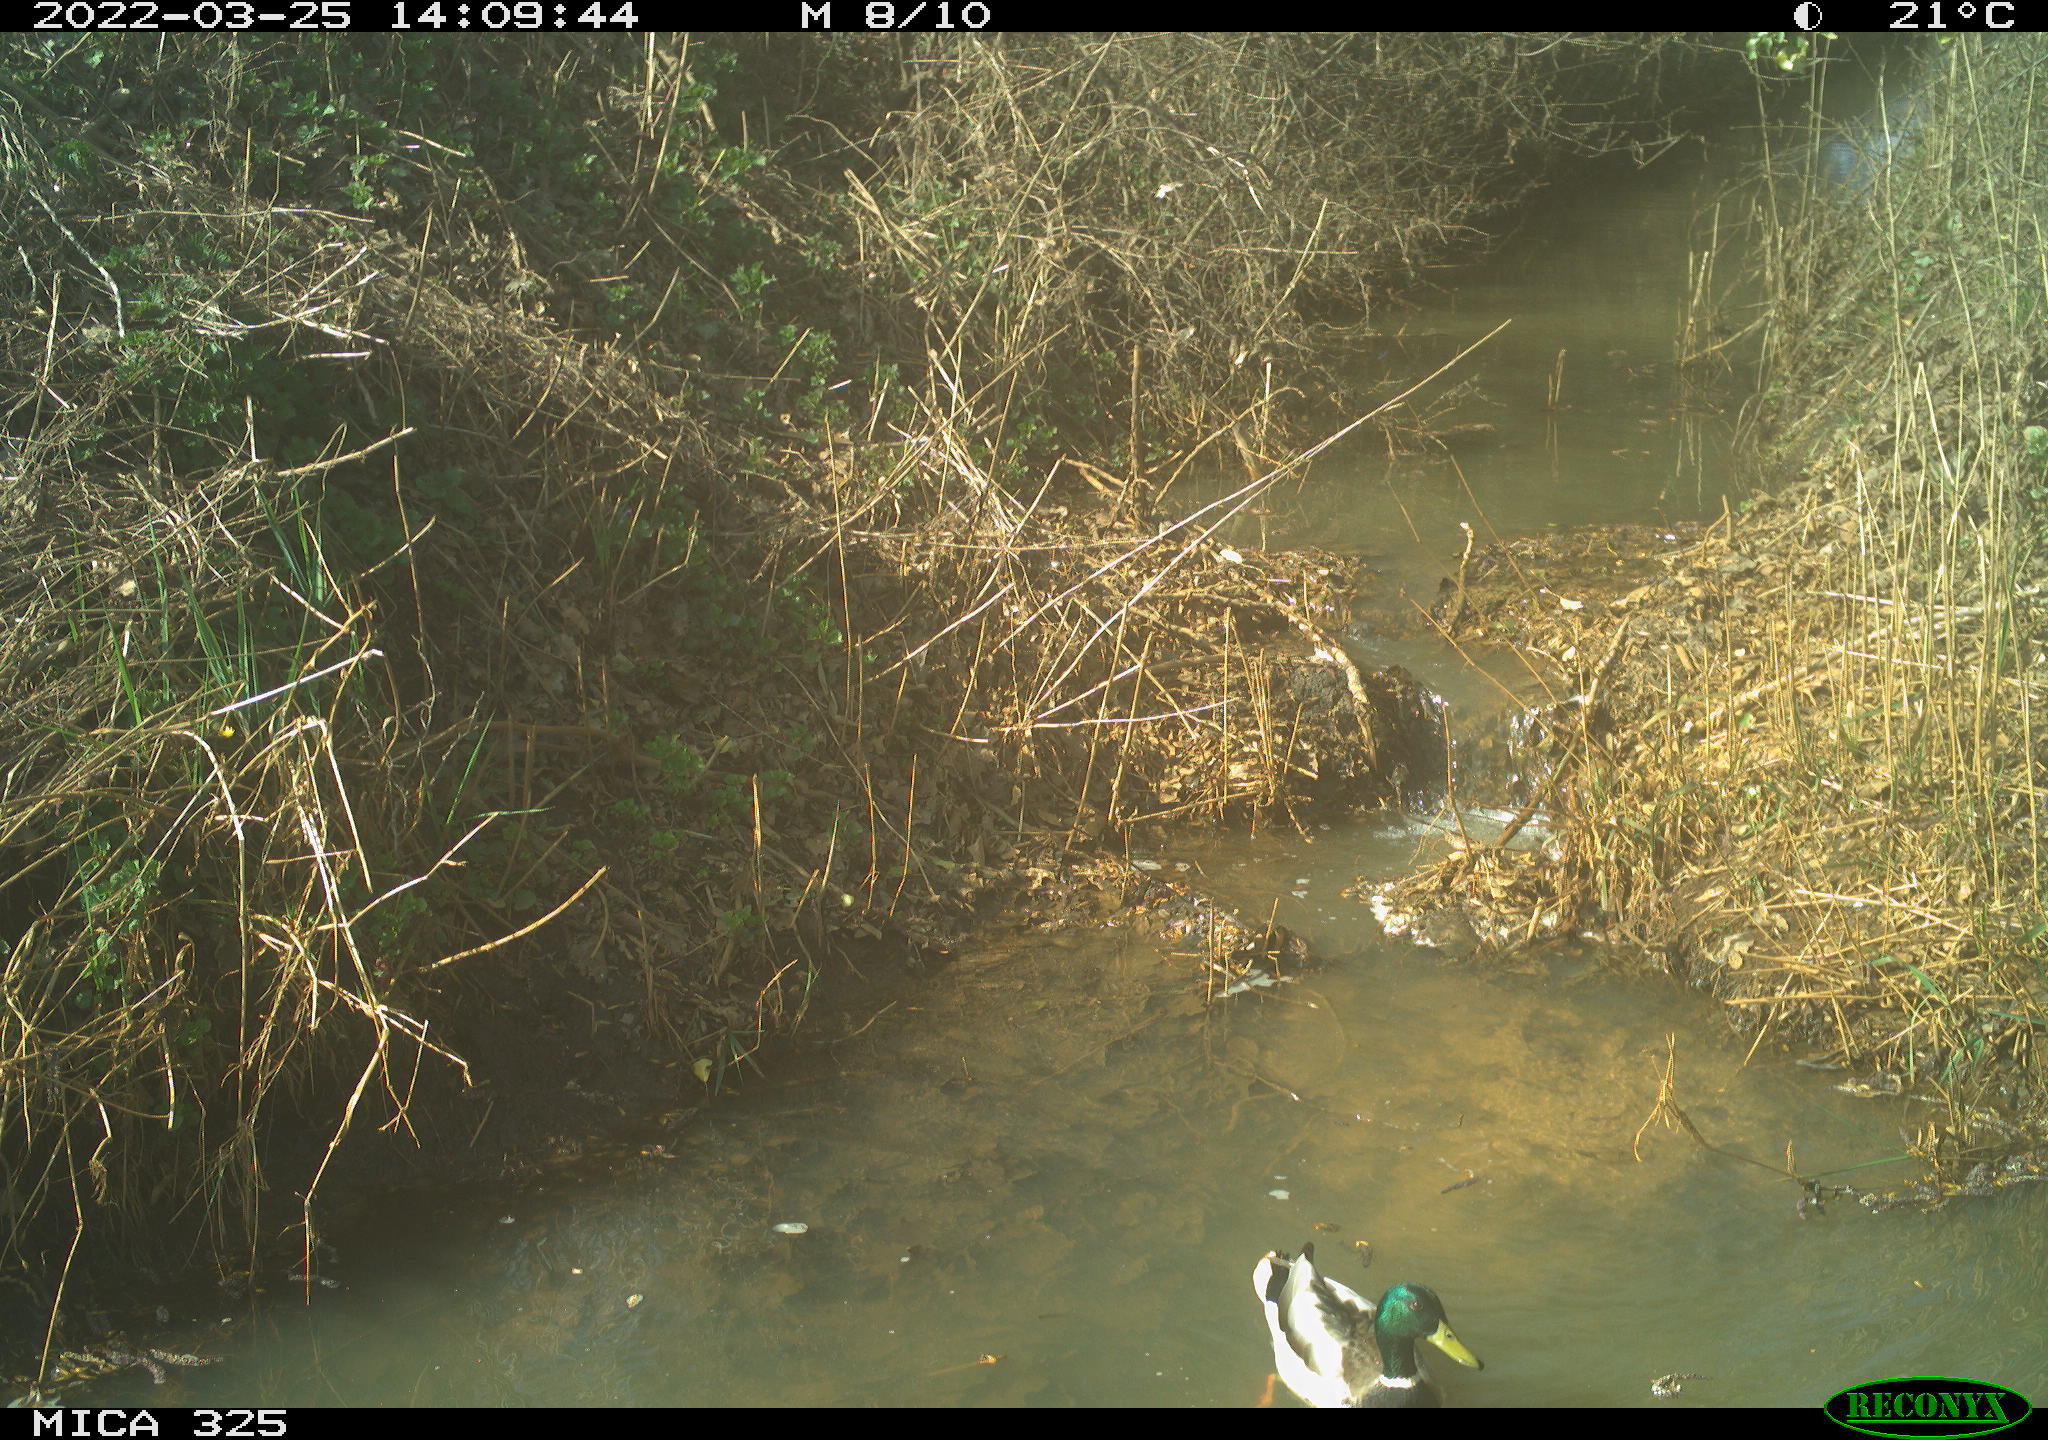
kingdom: Animalia
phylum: Chordata
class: Aves
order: Anseriformes
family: Anatidae
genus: Anas
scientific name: Anas platyrhynchos
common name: Mallard
